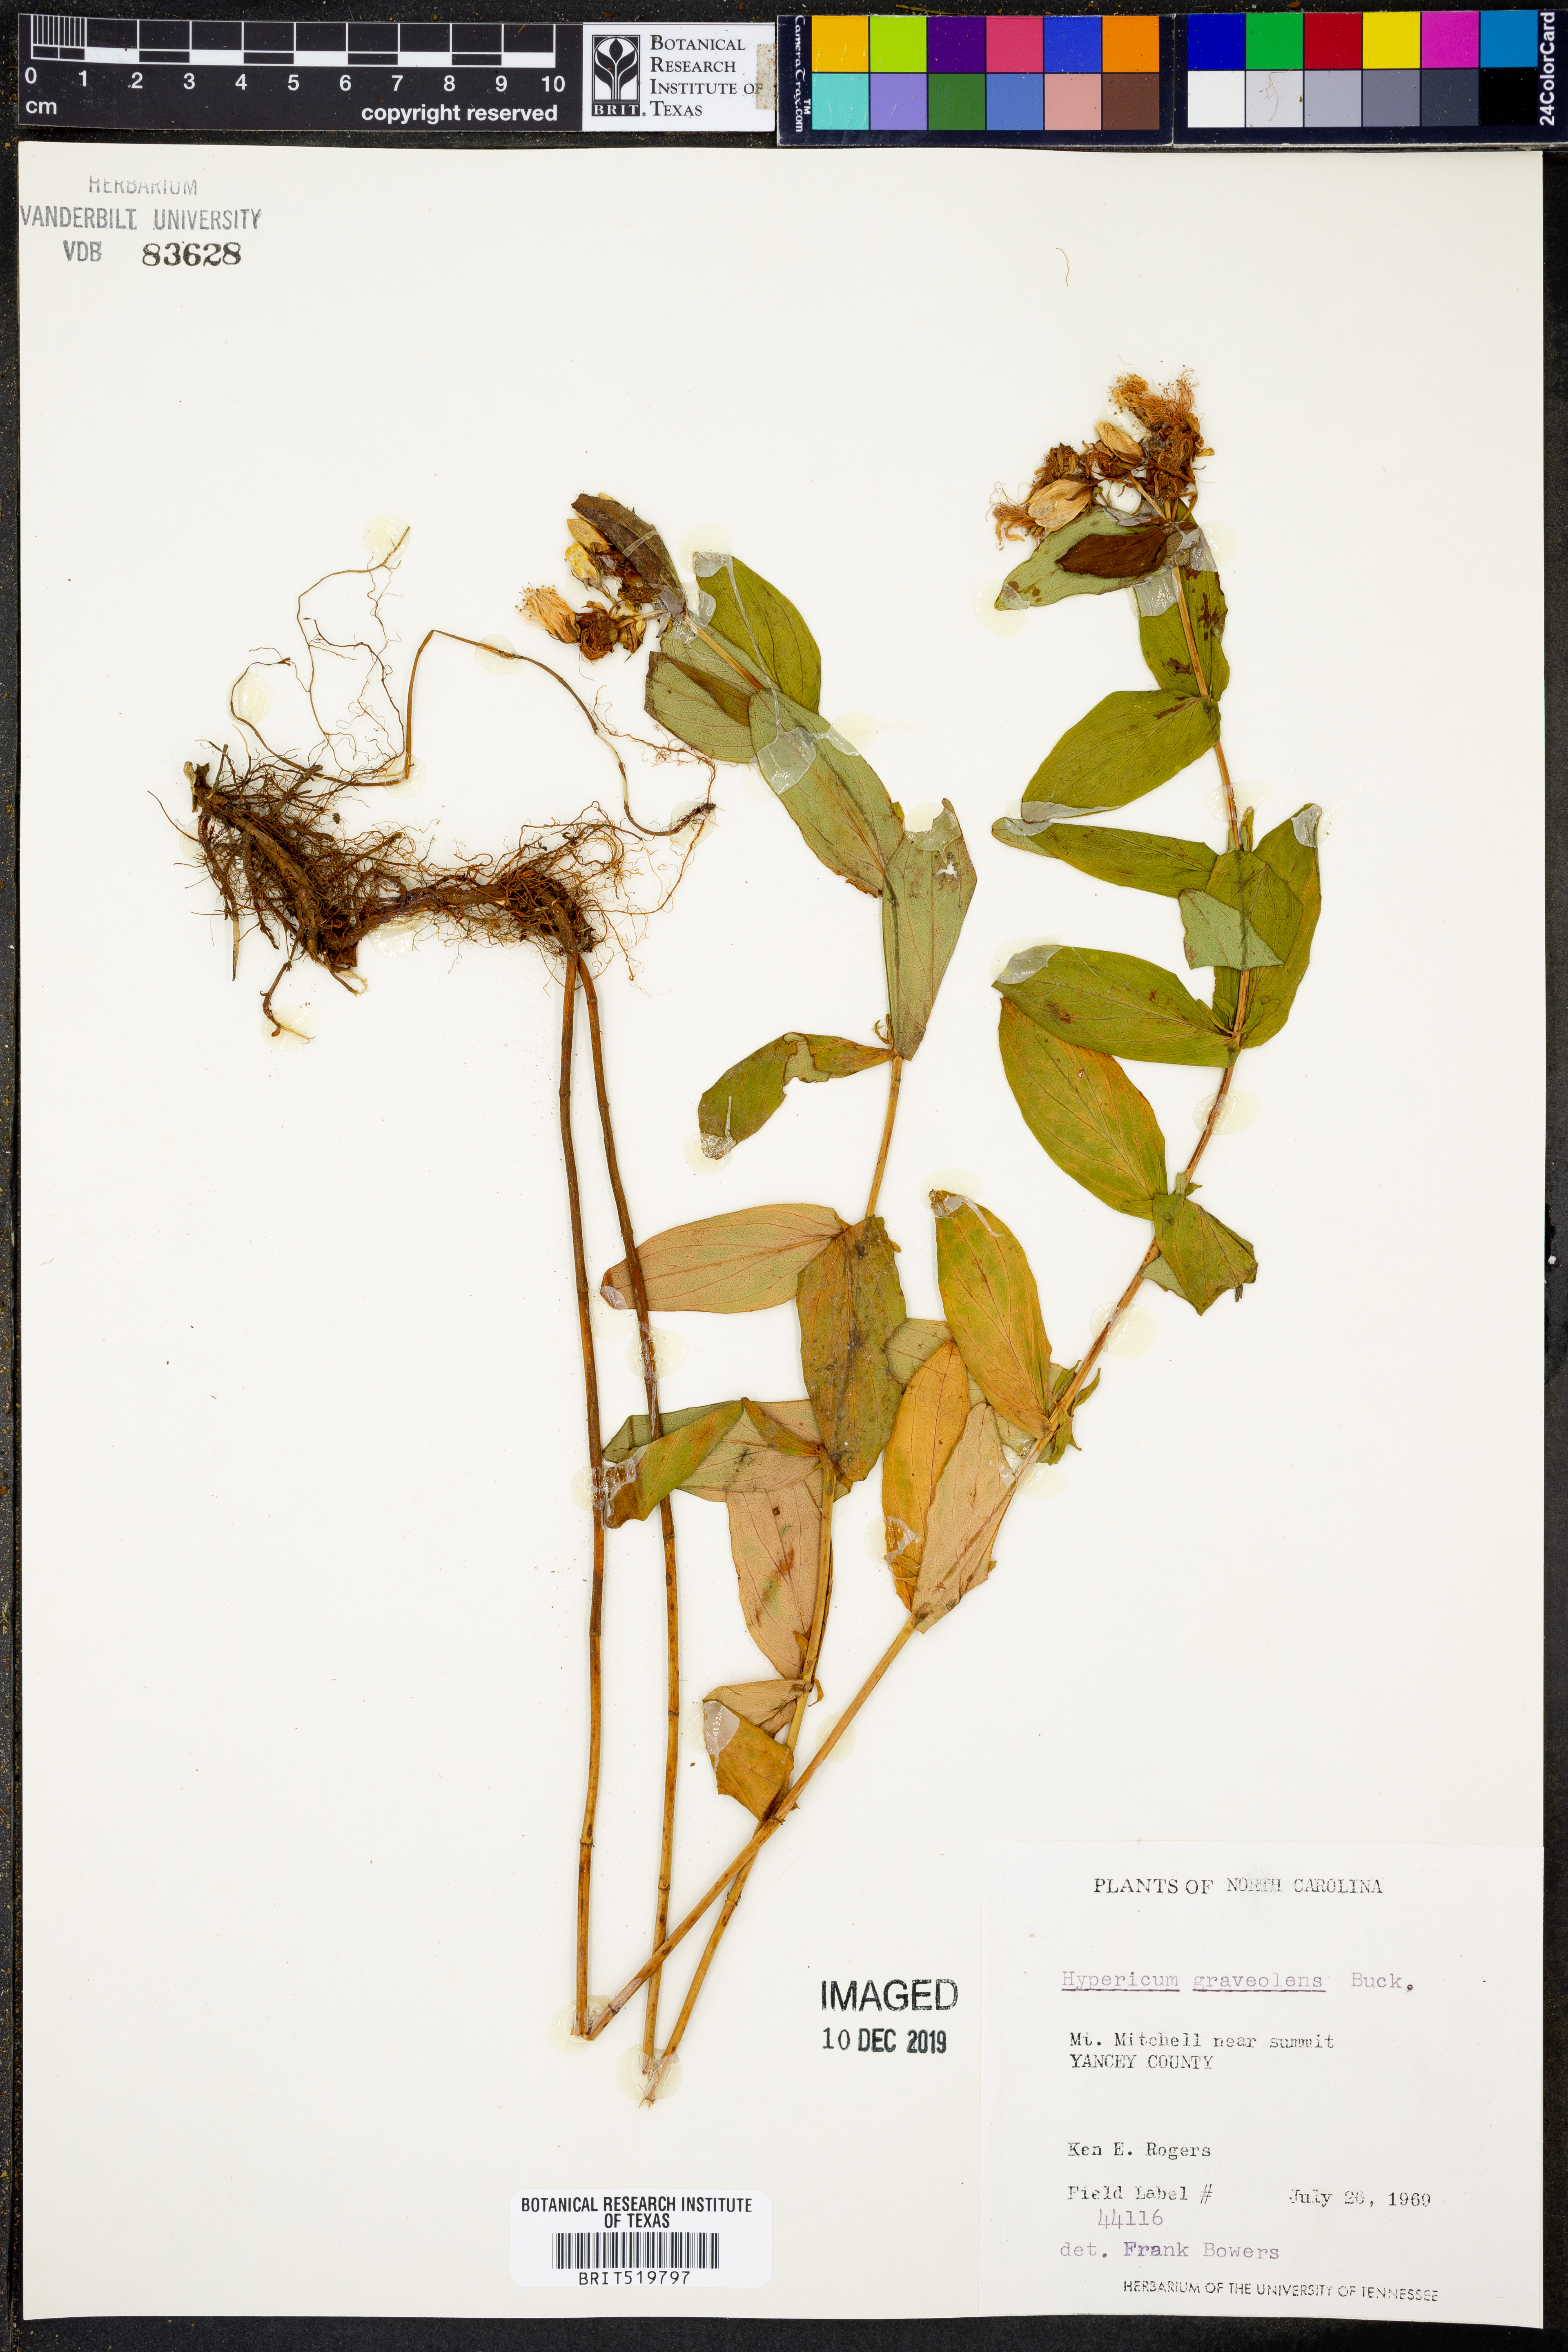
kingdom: Plantae
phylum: Tracheophyta
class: Magnoliopsida
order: Malpighiales
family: Hypericaceae
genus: Hypericum
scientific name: Hypericum graveolens
